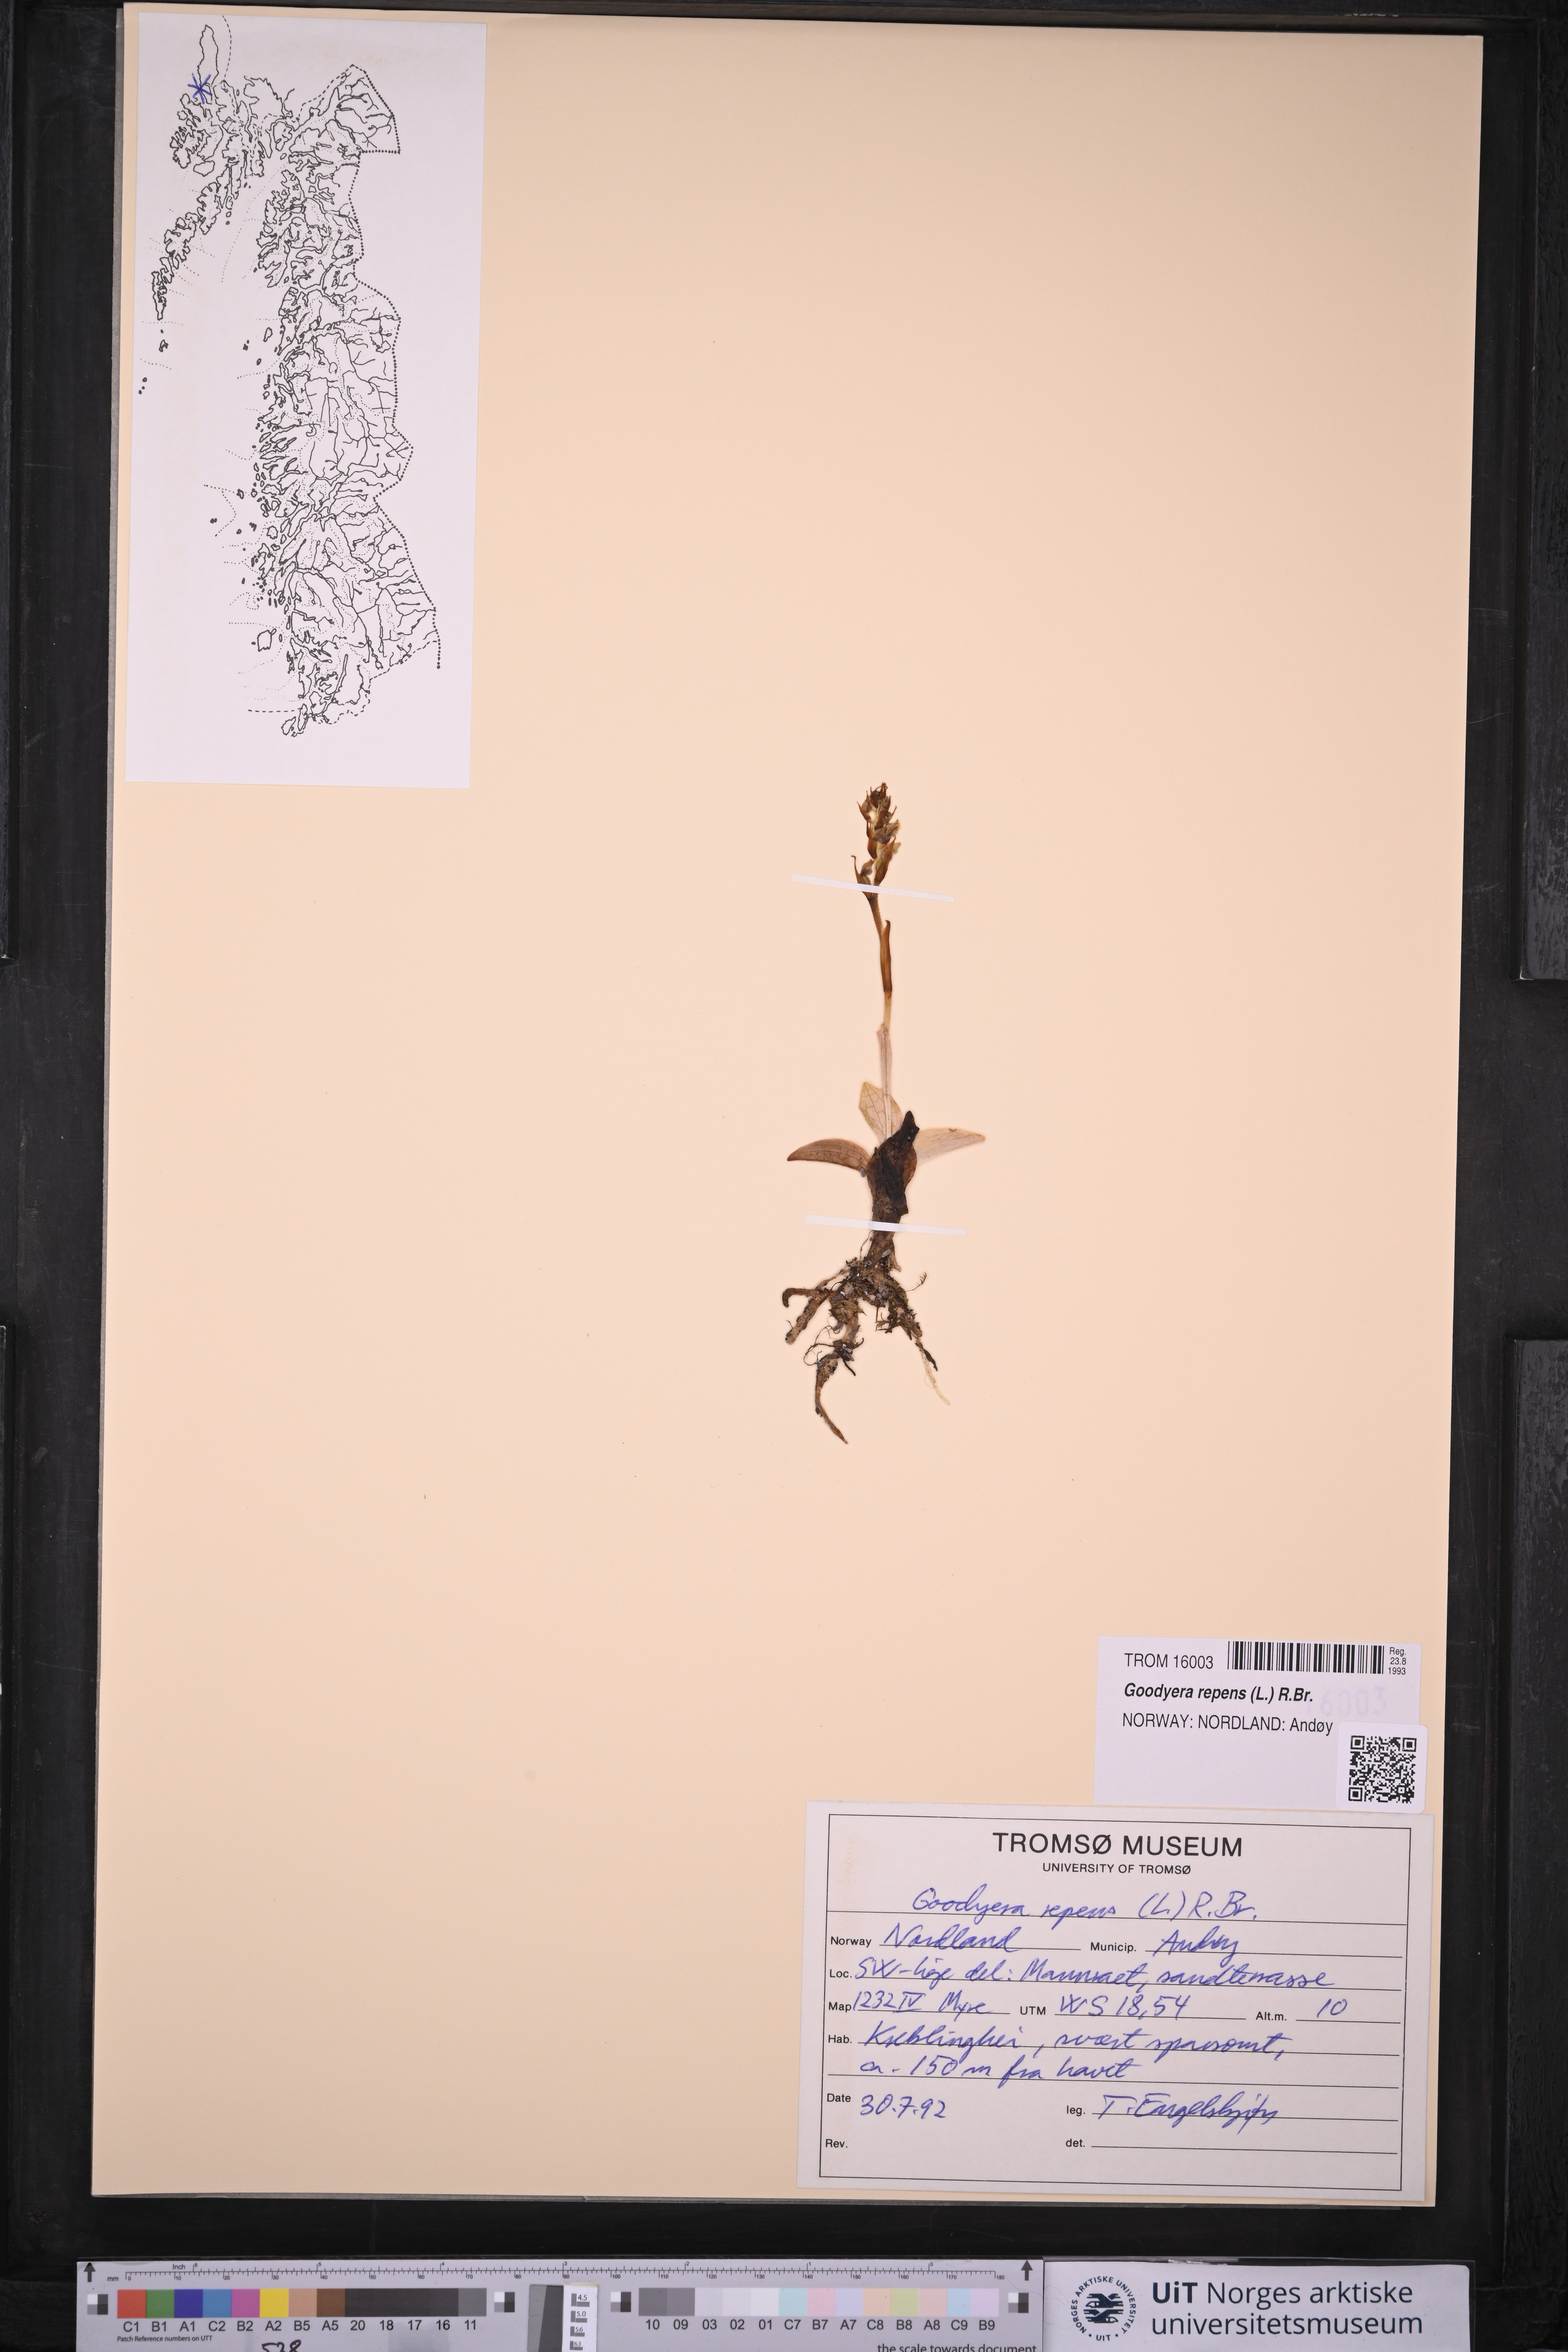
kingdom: Plantae
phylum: Tracheophyta
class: Liliopsida
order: Asparagales
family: Orchidaceae
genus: Goodyera
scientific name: Goodyera repens
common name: Creeping lady's-tresses
